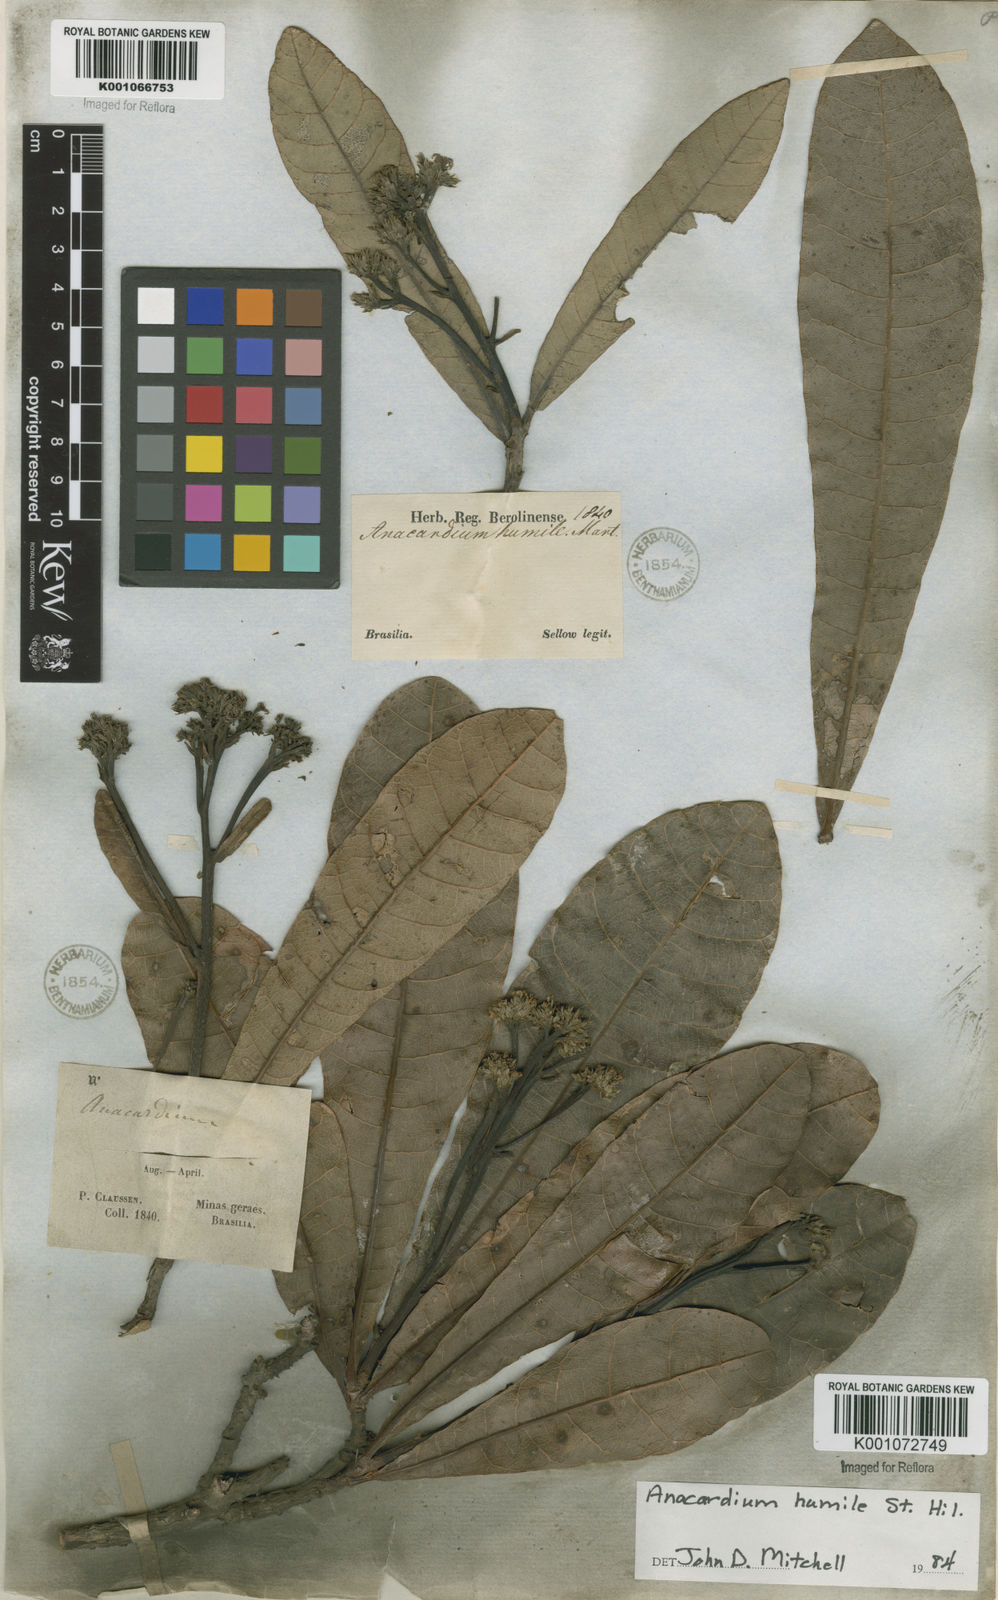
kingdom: Plantae
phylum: Tracheophyta
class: Magnoliopsida
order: Sapindales
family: Anacardiaceae
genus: Anacardium
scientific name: Anacardium humile
